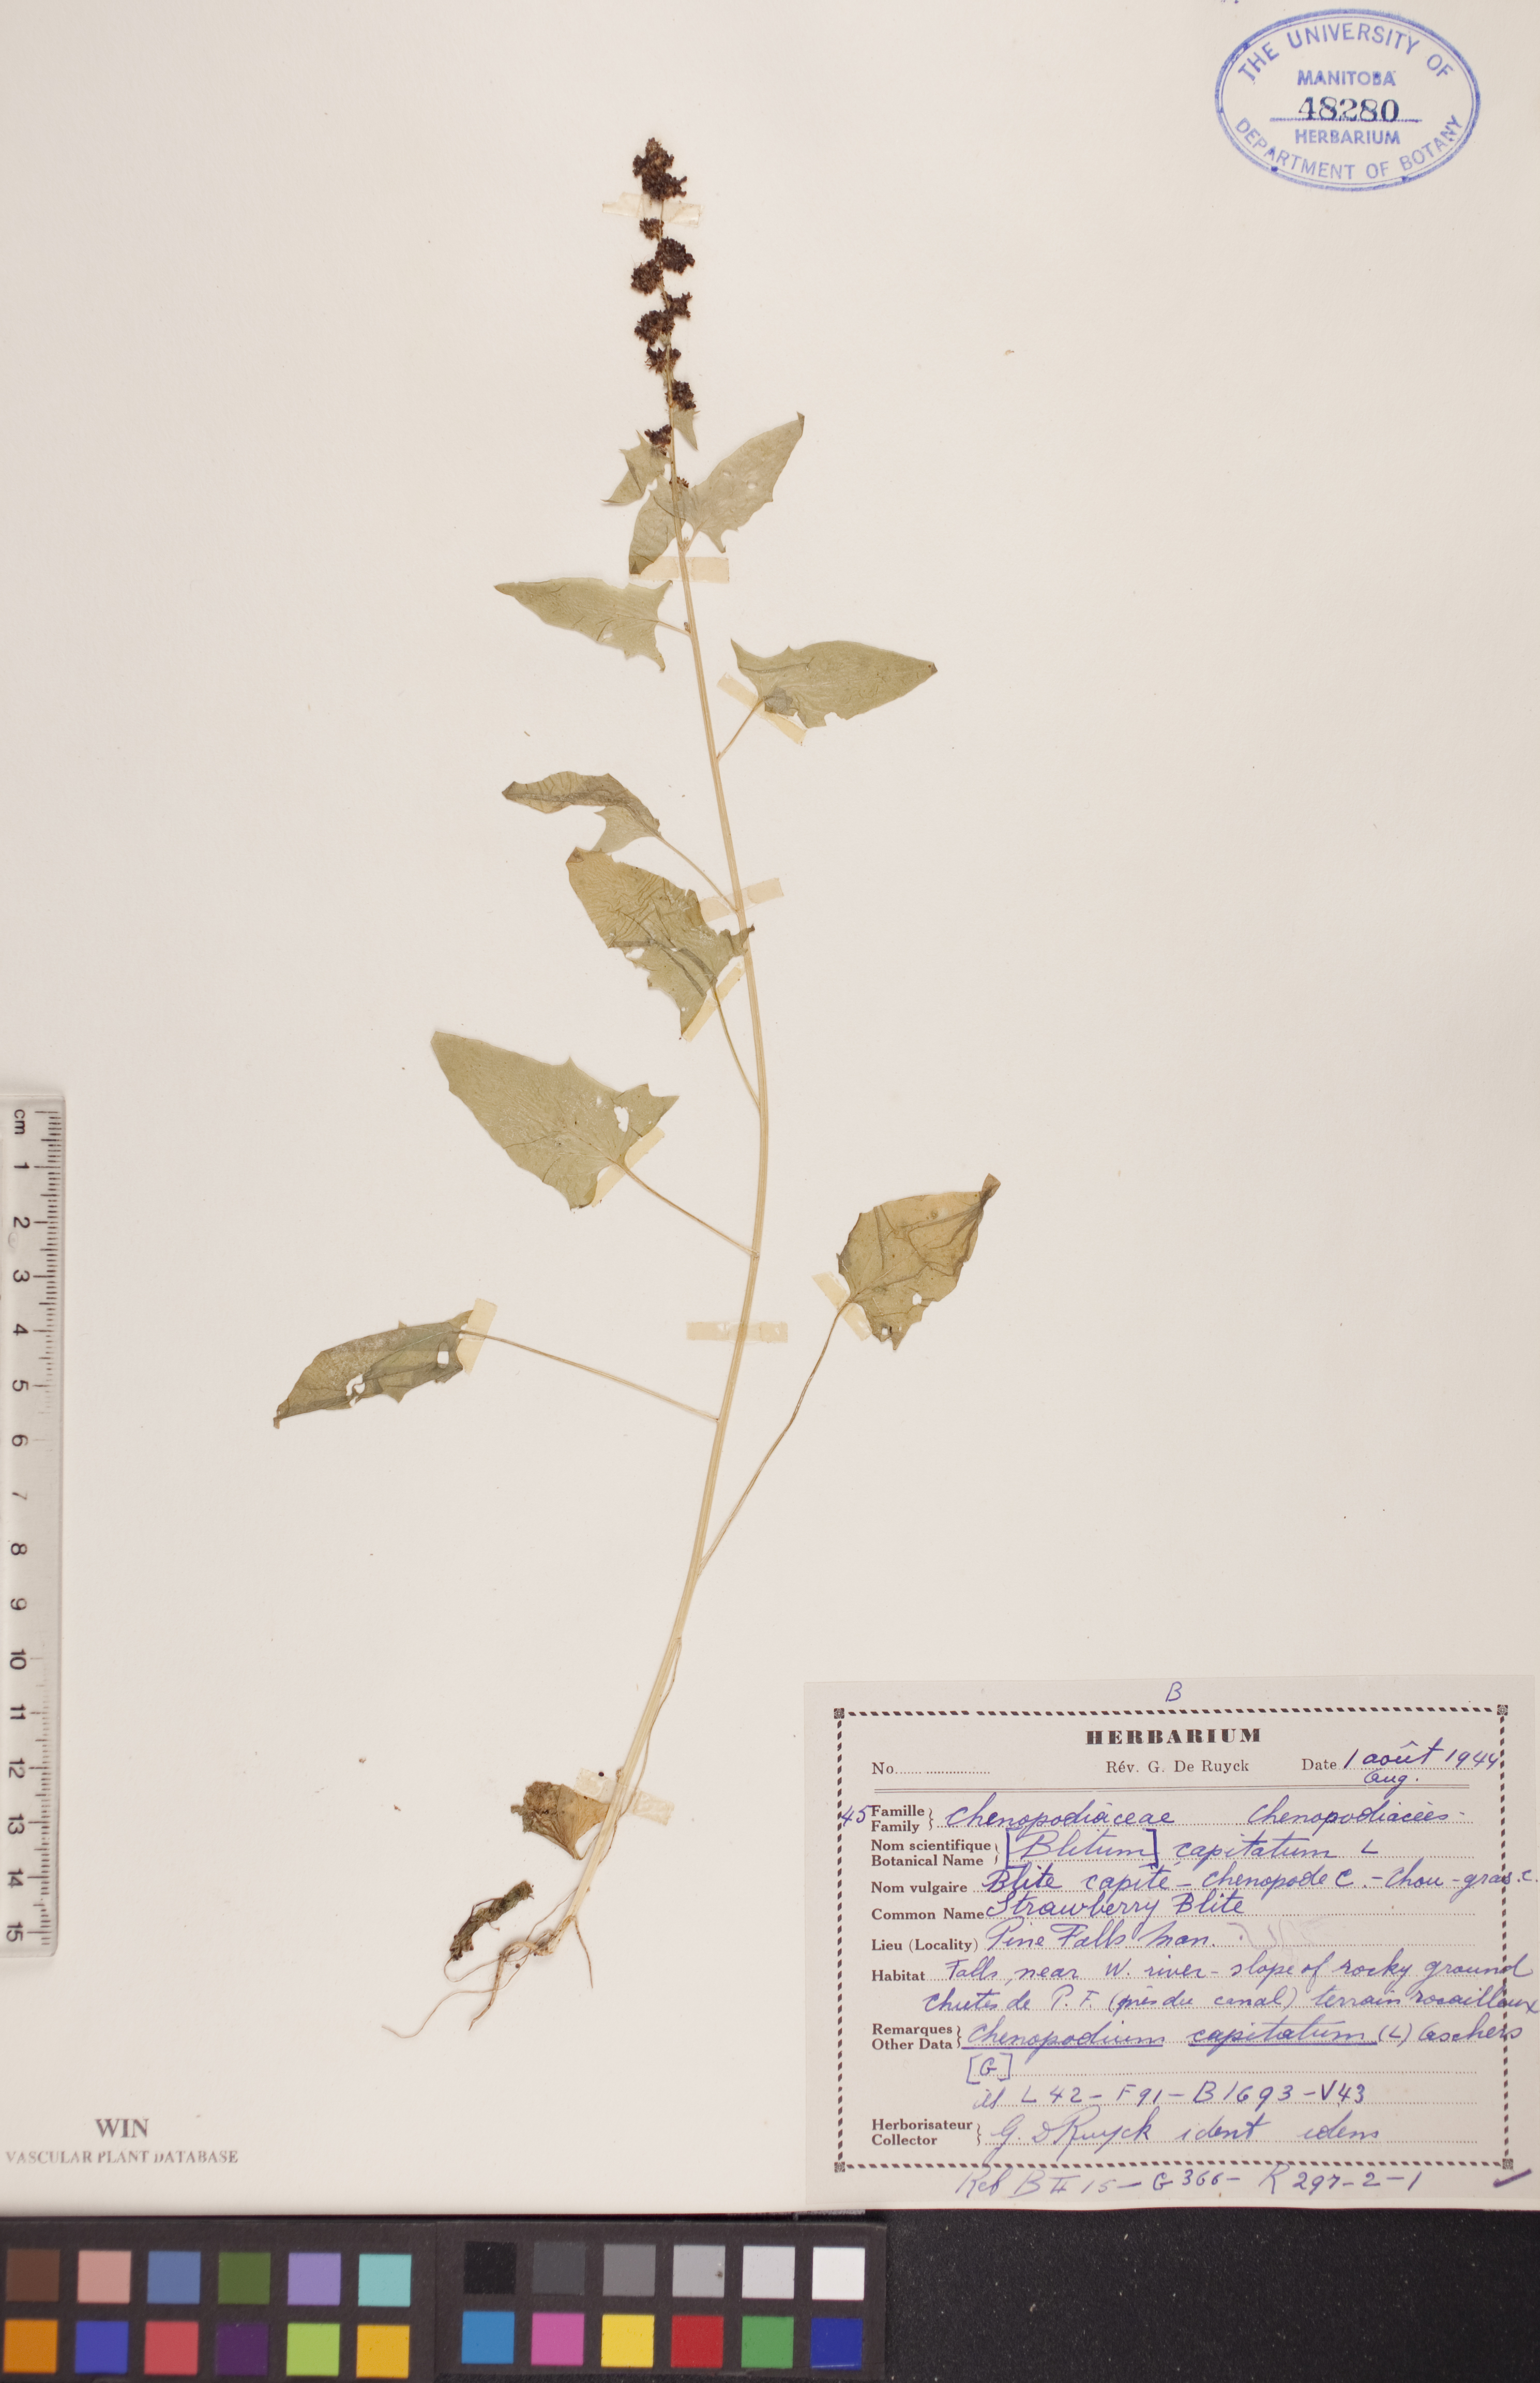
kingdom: Plantae
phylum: Tracheophyta
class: Magnoliopsida
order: Caryophyllales
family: Amaranthaceae
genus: Blitum
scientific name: Blitum capitatum
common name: Strawberry-blight
